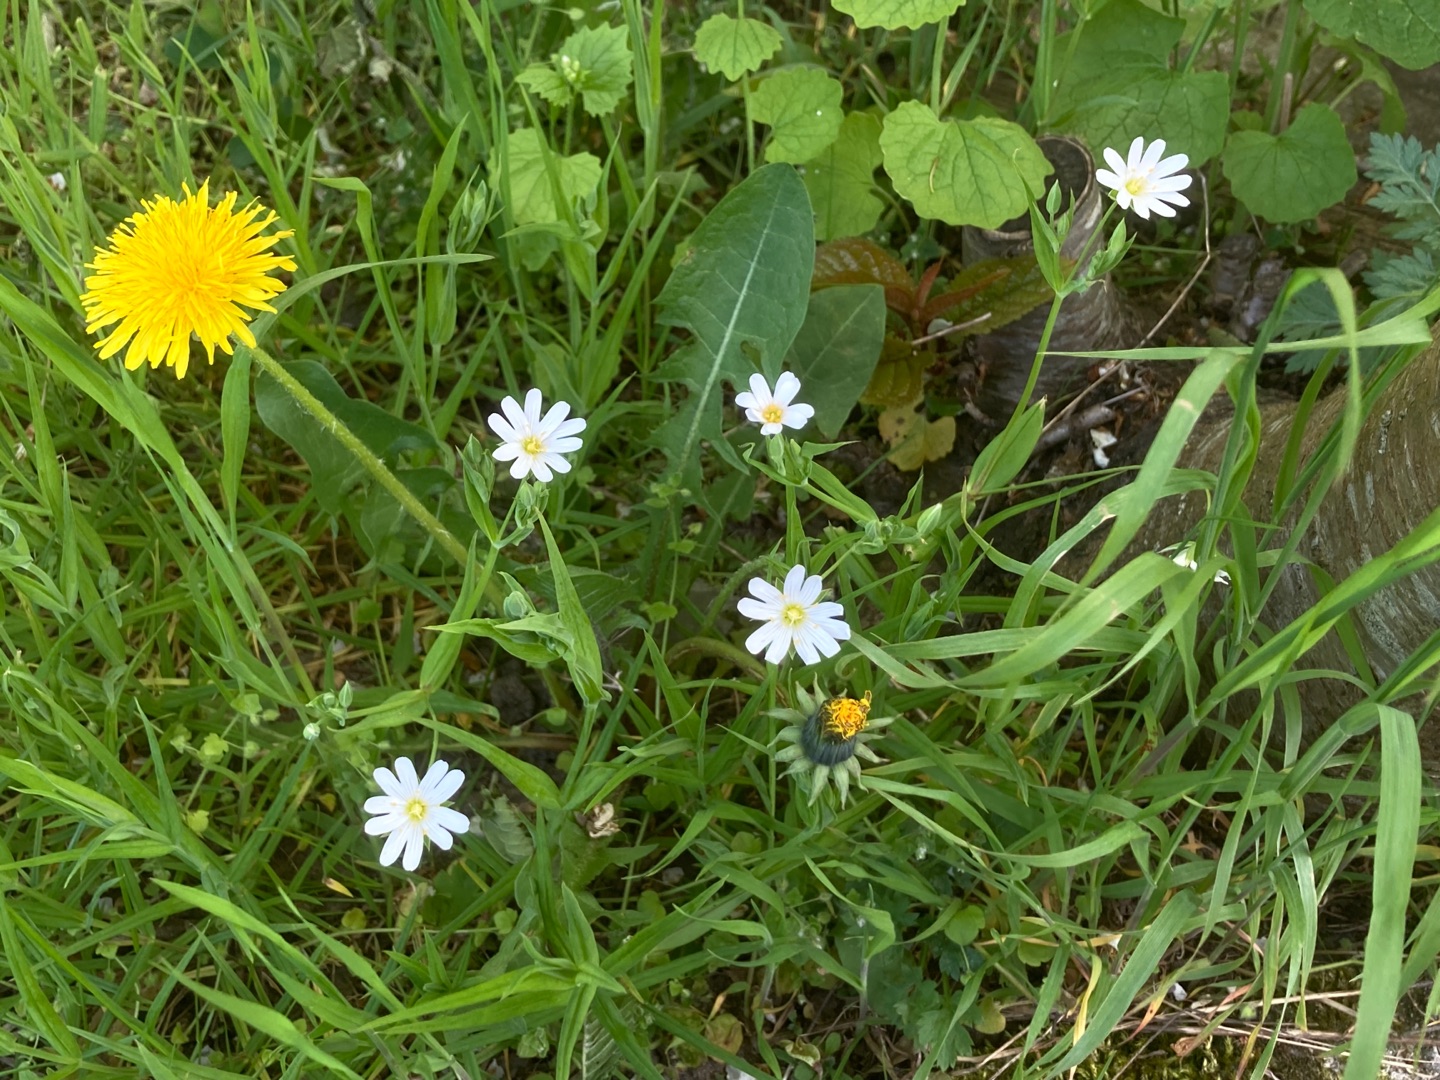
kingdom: Plantae
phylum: Tracheophyta
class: Magnoliopsida
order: Caryophyllales
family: Caryophyllaceae
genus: Rabelera
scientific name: Rabelera holostea
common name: Stor fladstjerne
